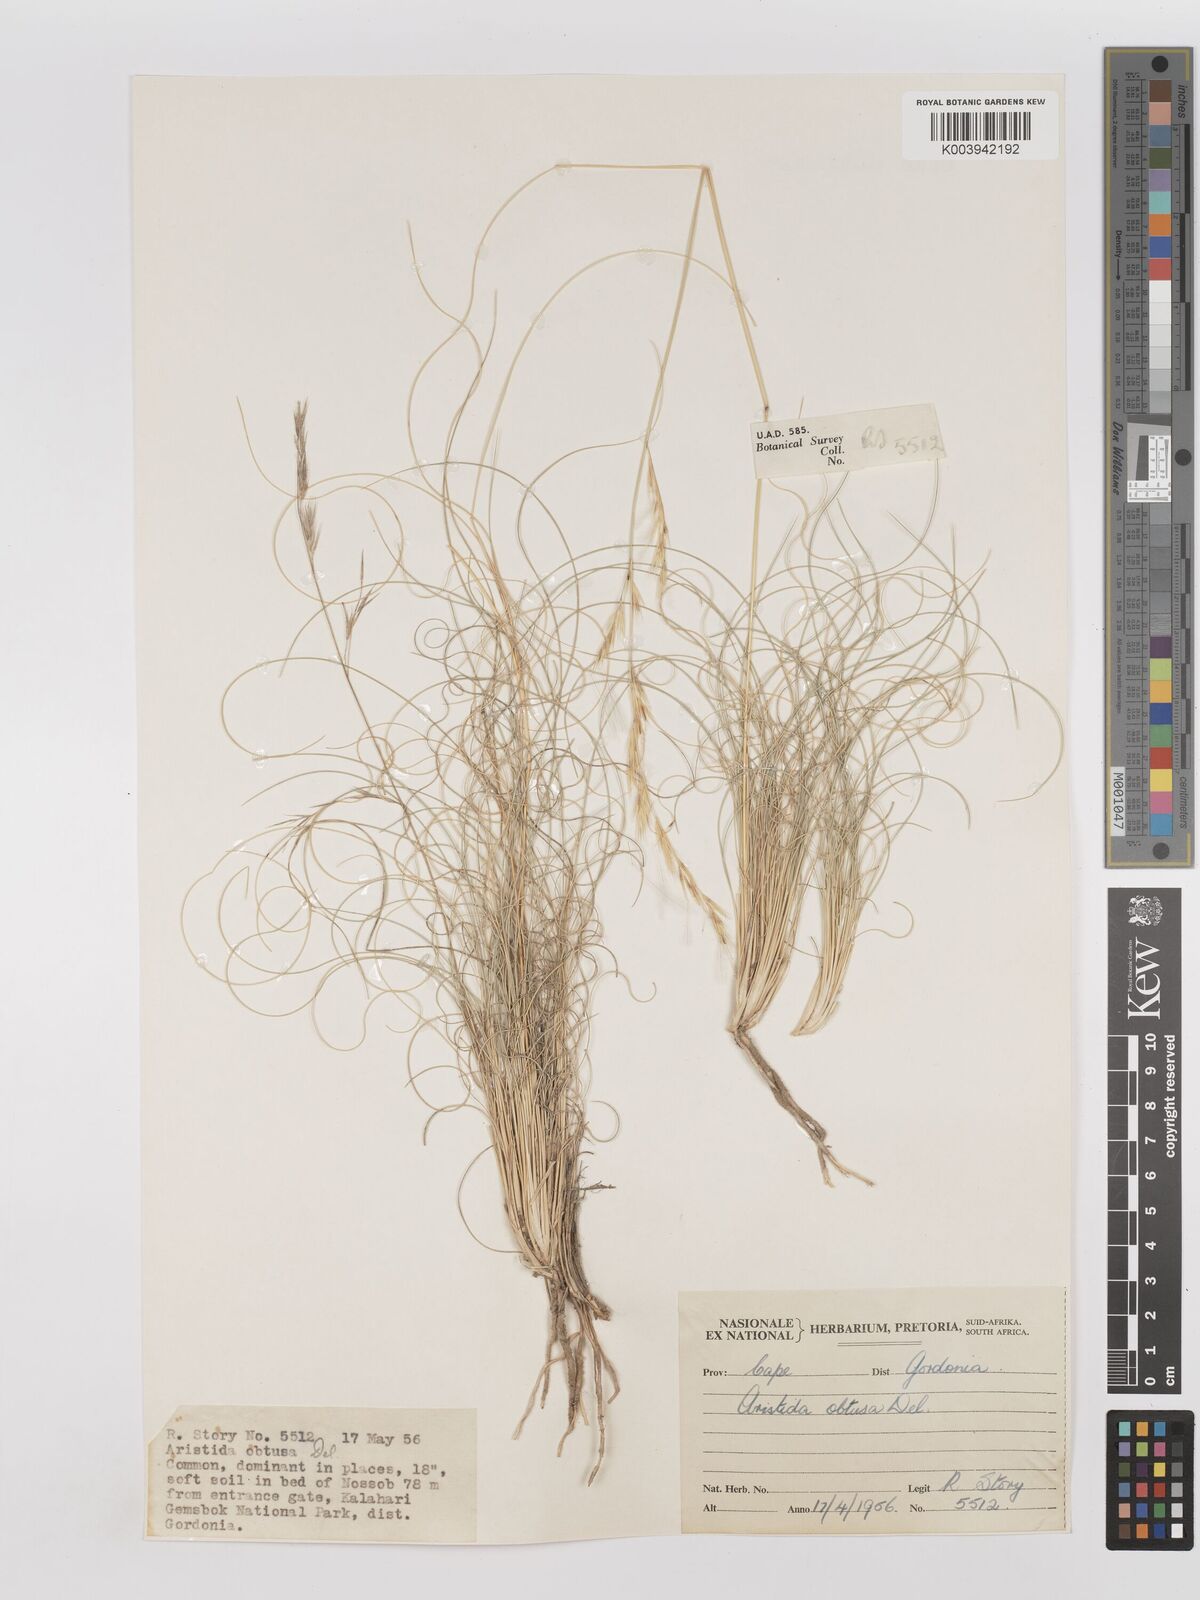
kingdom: Plantae
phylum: Tracheophyta
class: Liliopsida
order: Poales
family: Poaceae
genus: Stipagrostis
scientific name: Stipagrostis obtusa
